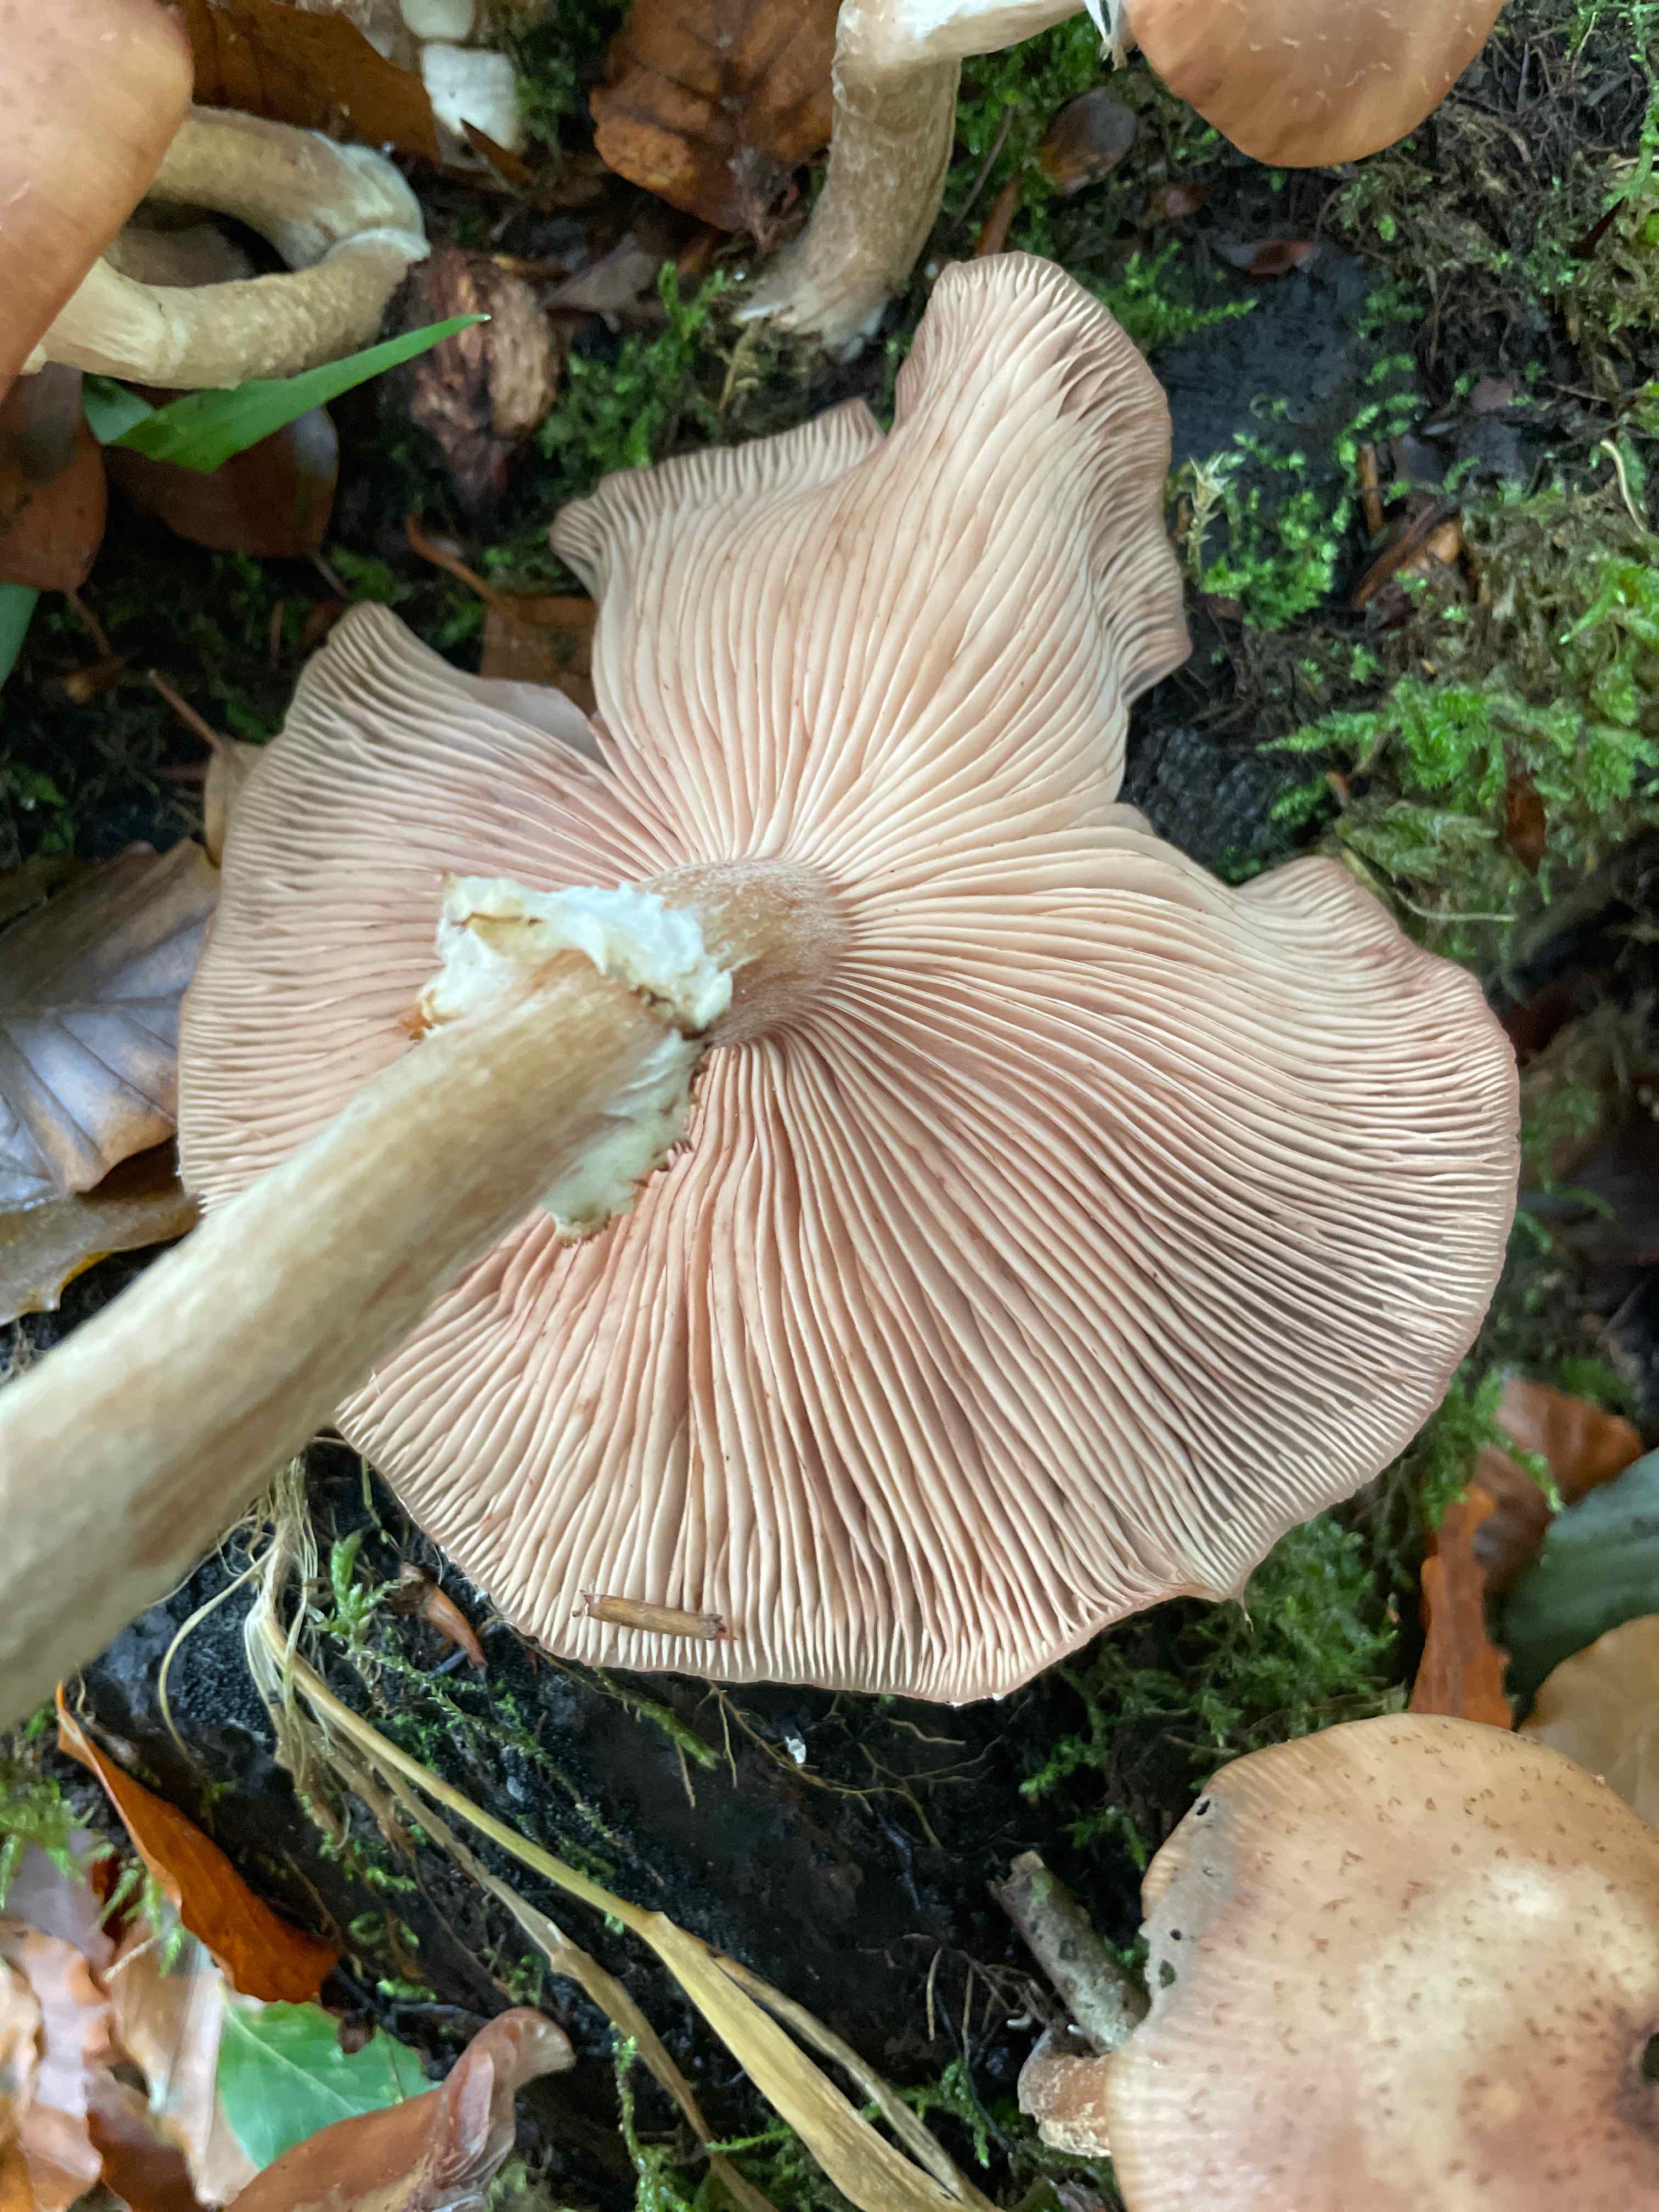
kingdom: Fungi
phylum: Basidiomycota
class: Agaricomycetes
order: Agaricales
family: Physalacriaceae
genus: Armillaria
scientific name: Armillaria lutea
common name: køllestokket honningsvamp
